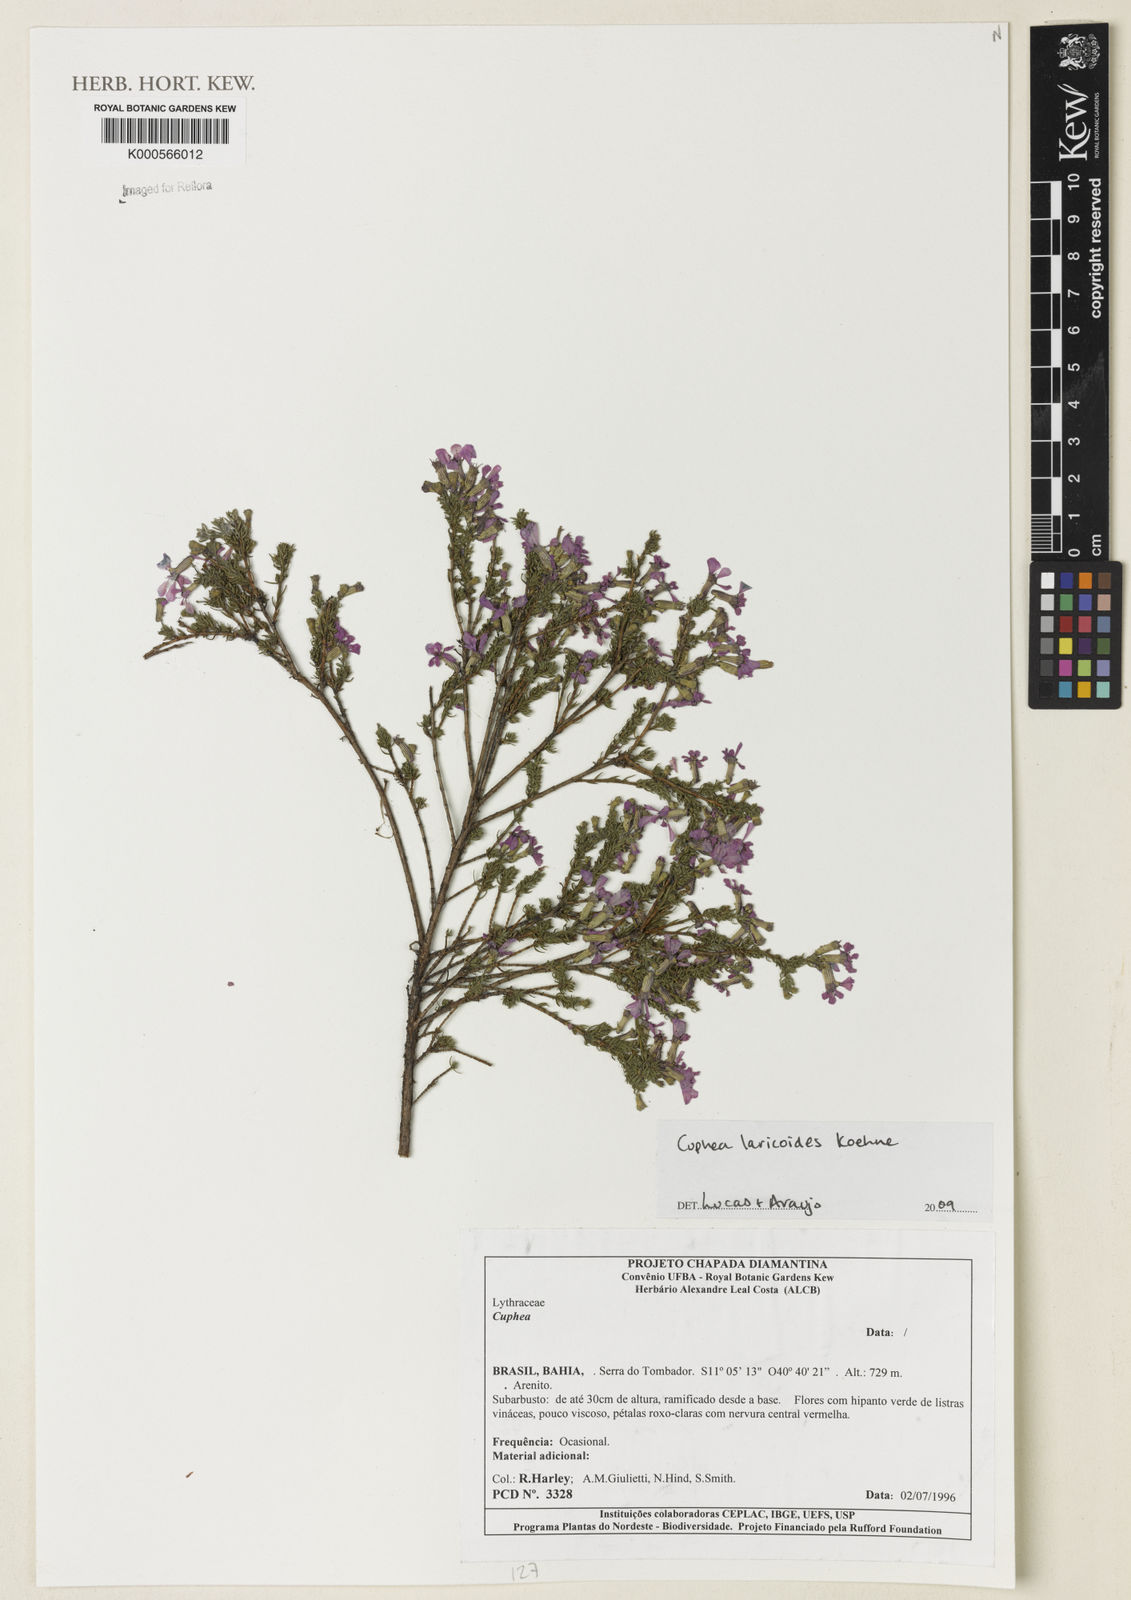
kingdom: Plantae
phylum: Tracheophyta
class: Magnoliopsida
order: Myrtales
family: Lythraceae
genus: Cuphea
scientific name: Cuphea
